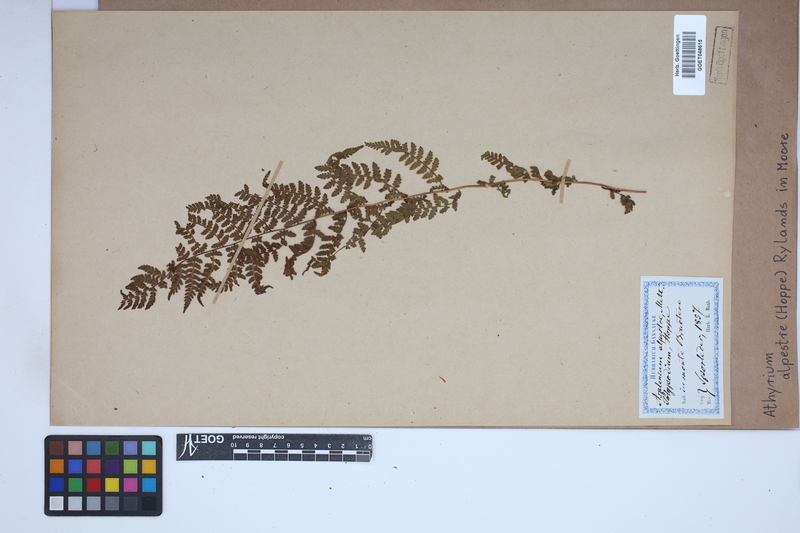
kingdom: Plantae
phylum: Tracheophyta
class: Polypodiopsida
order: Polypodiales
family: Athyriaceae
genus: Pseudathyrium
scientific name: Pseudathyrium alpestre
